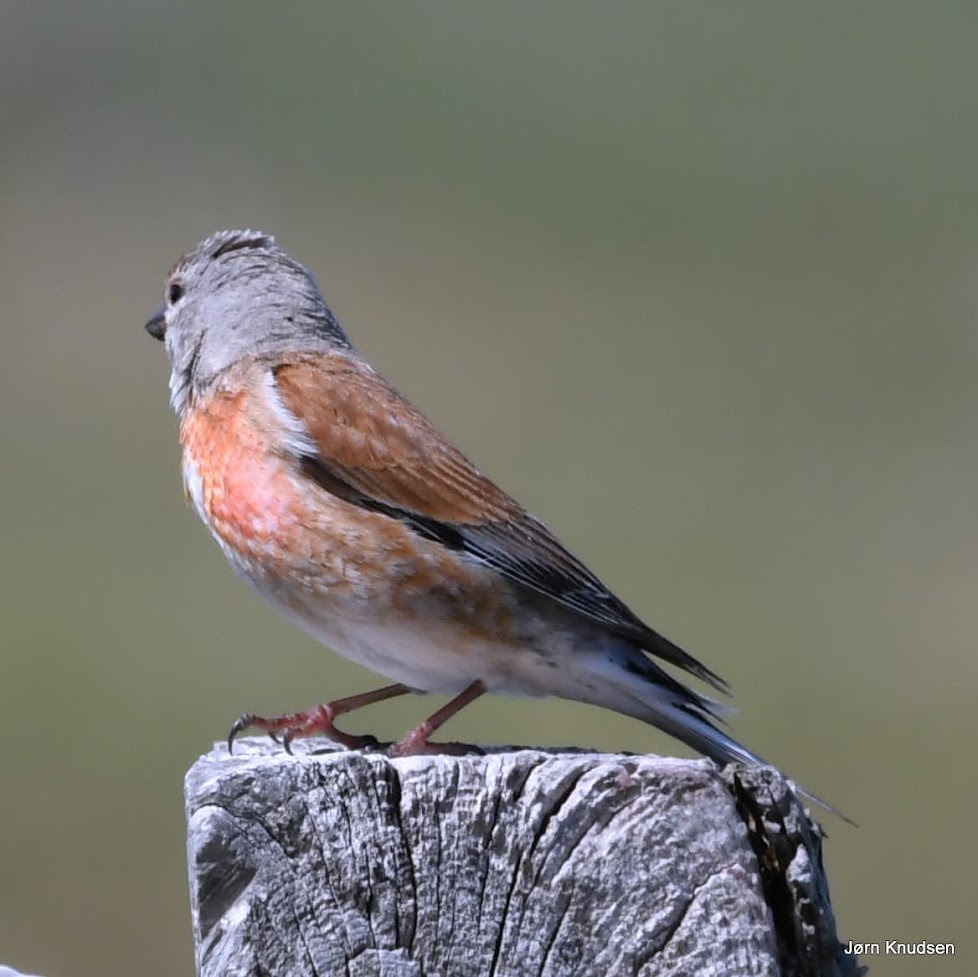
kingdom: Animalia
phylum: Chordata
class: Aves
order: Passeriformes
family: Fringillidae
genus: Linaria
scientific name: Linaria cannabina
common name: Tornirisk
